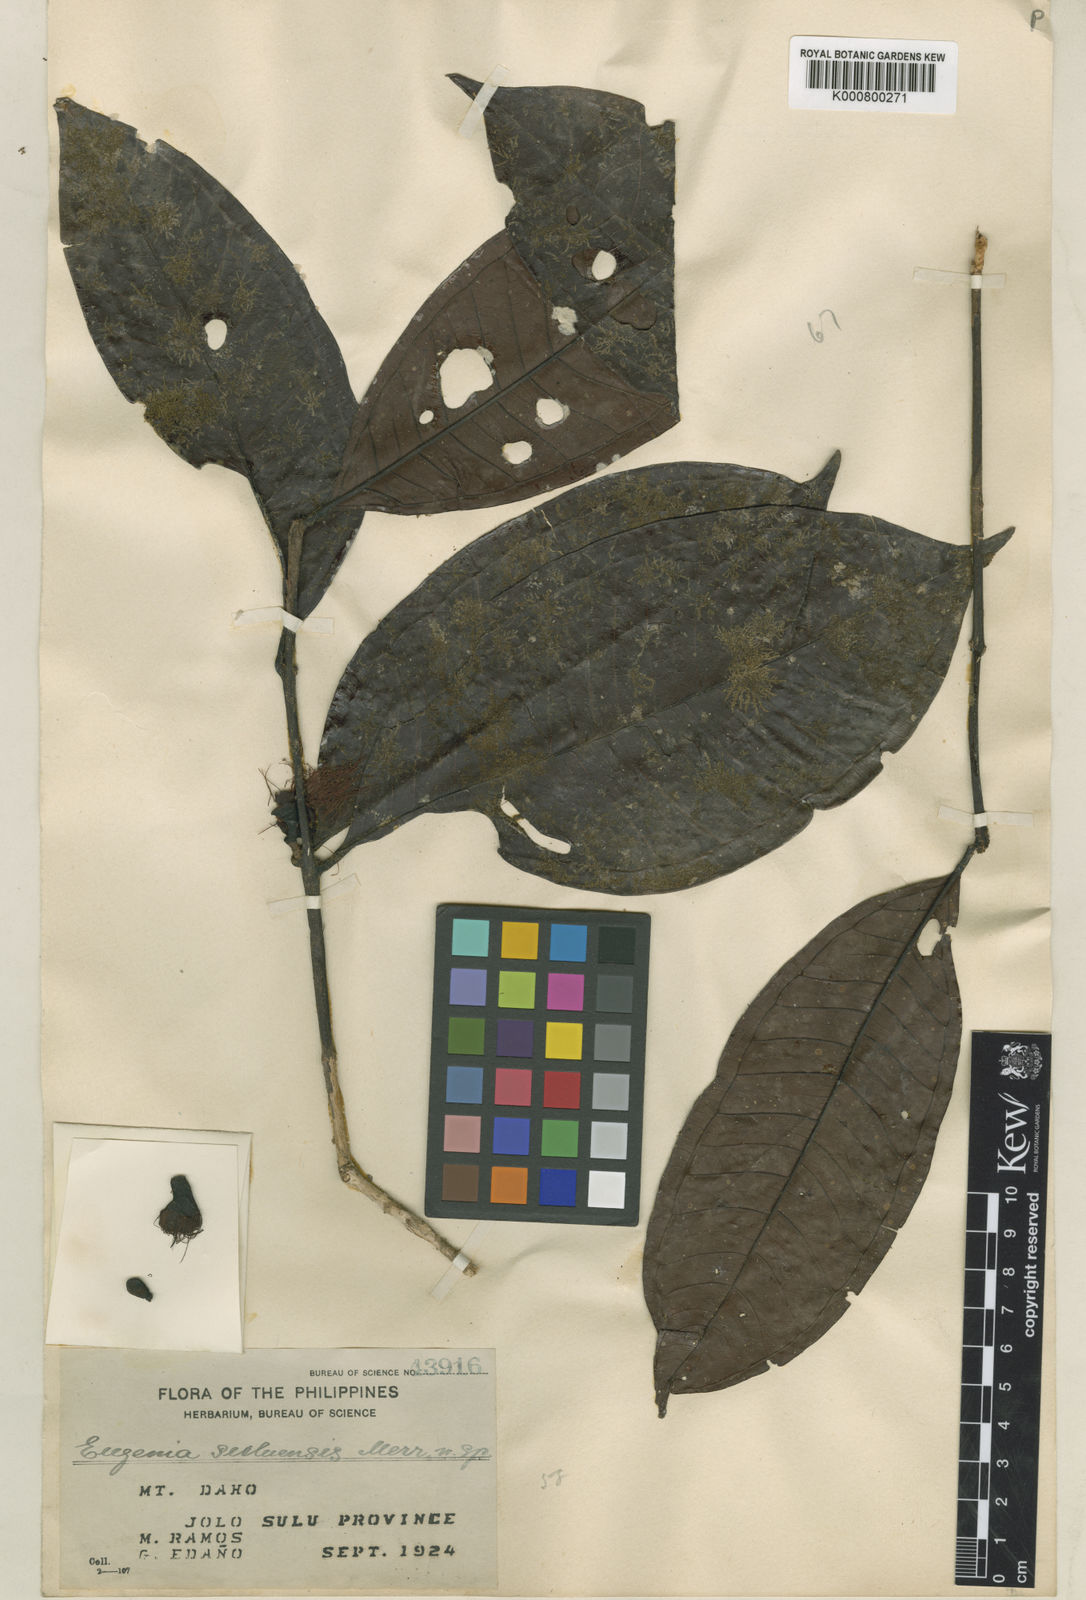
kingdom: Plantae
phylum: Tracheophyta
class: Magnoliopsida
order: Myrtales
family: Myrtaceae
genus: Syzygium
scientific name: Syzygium elliptilimbum
